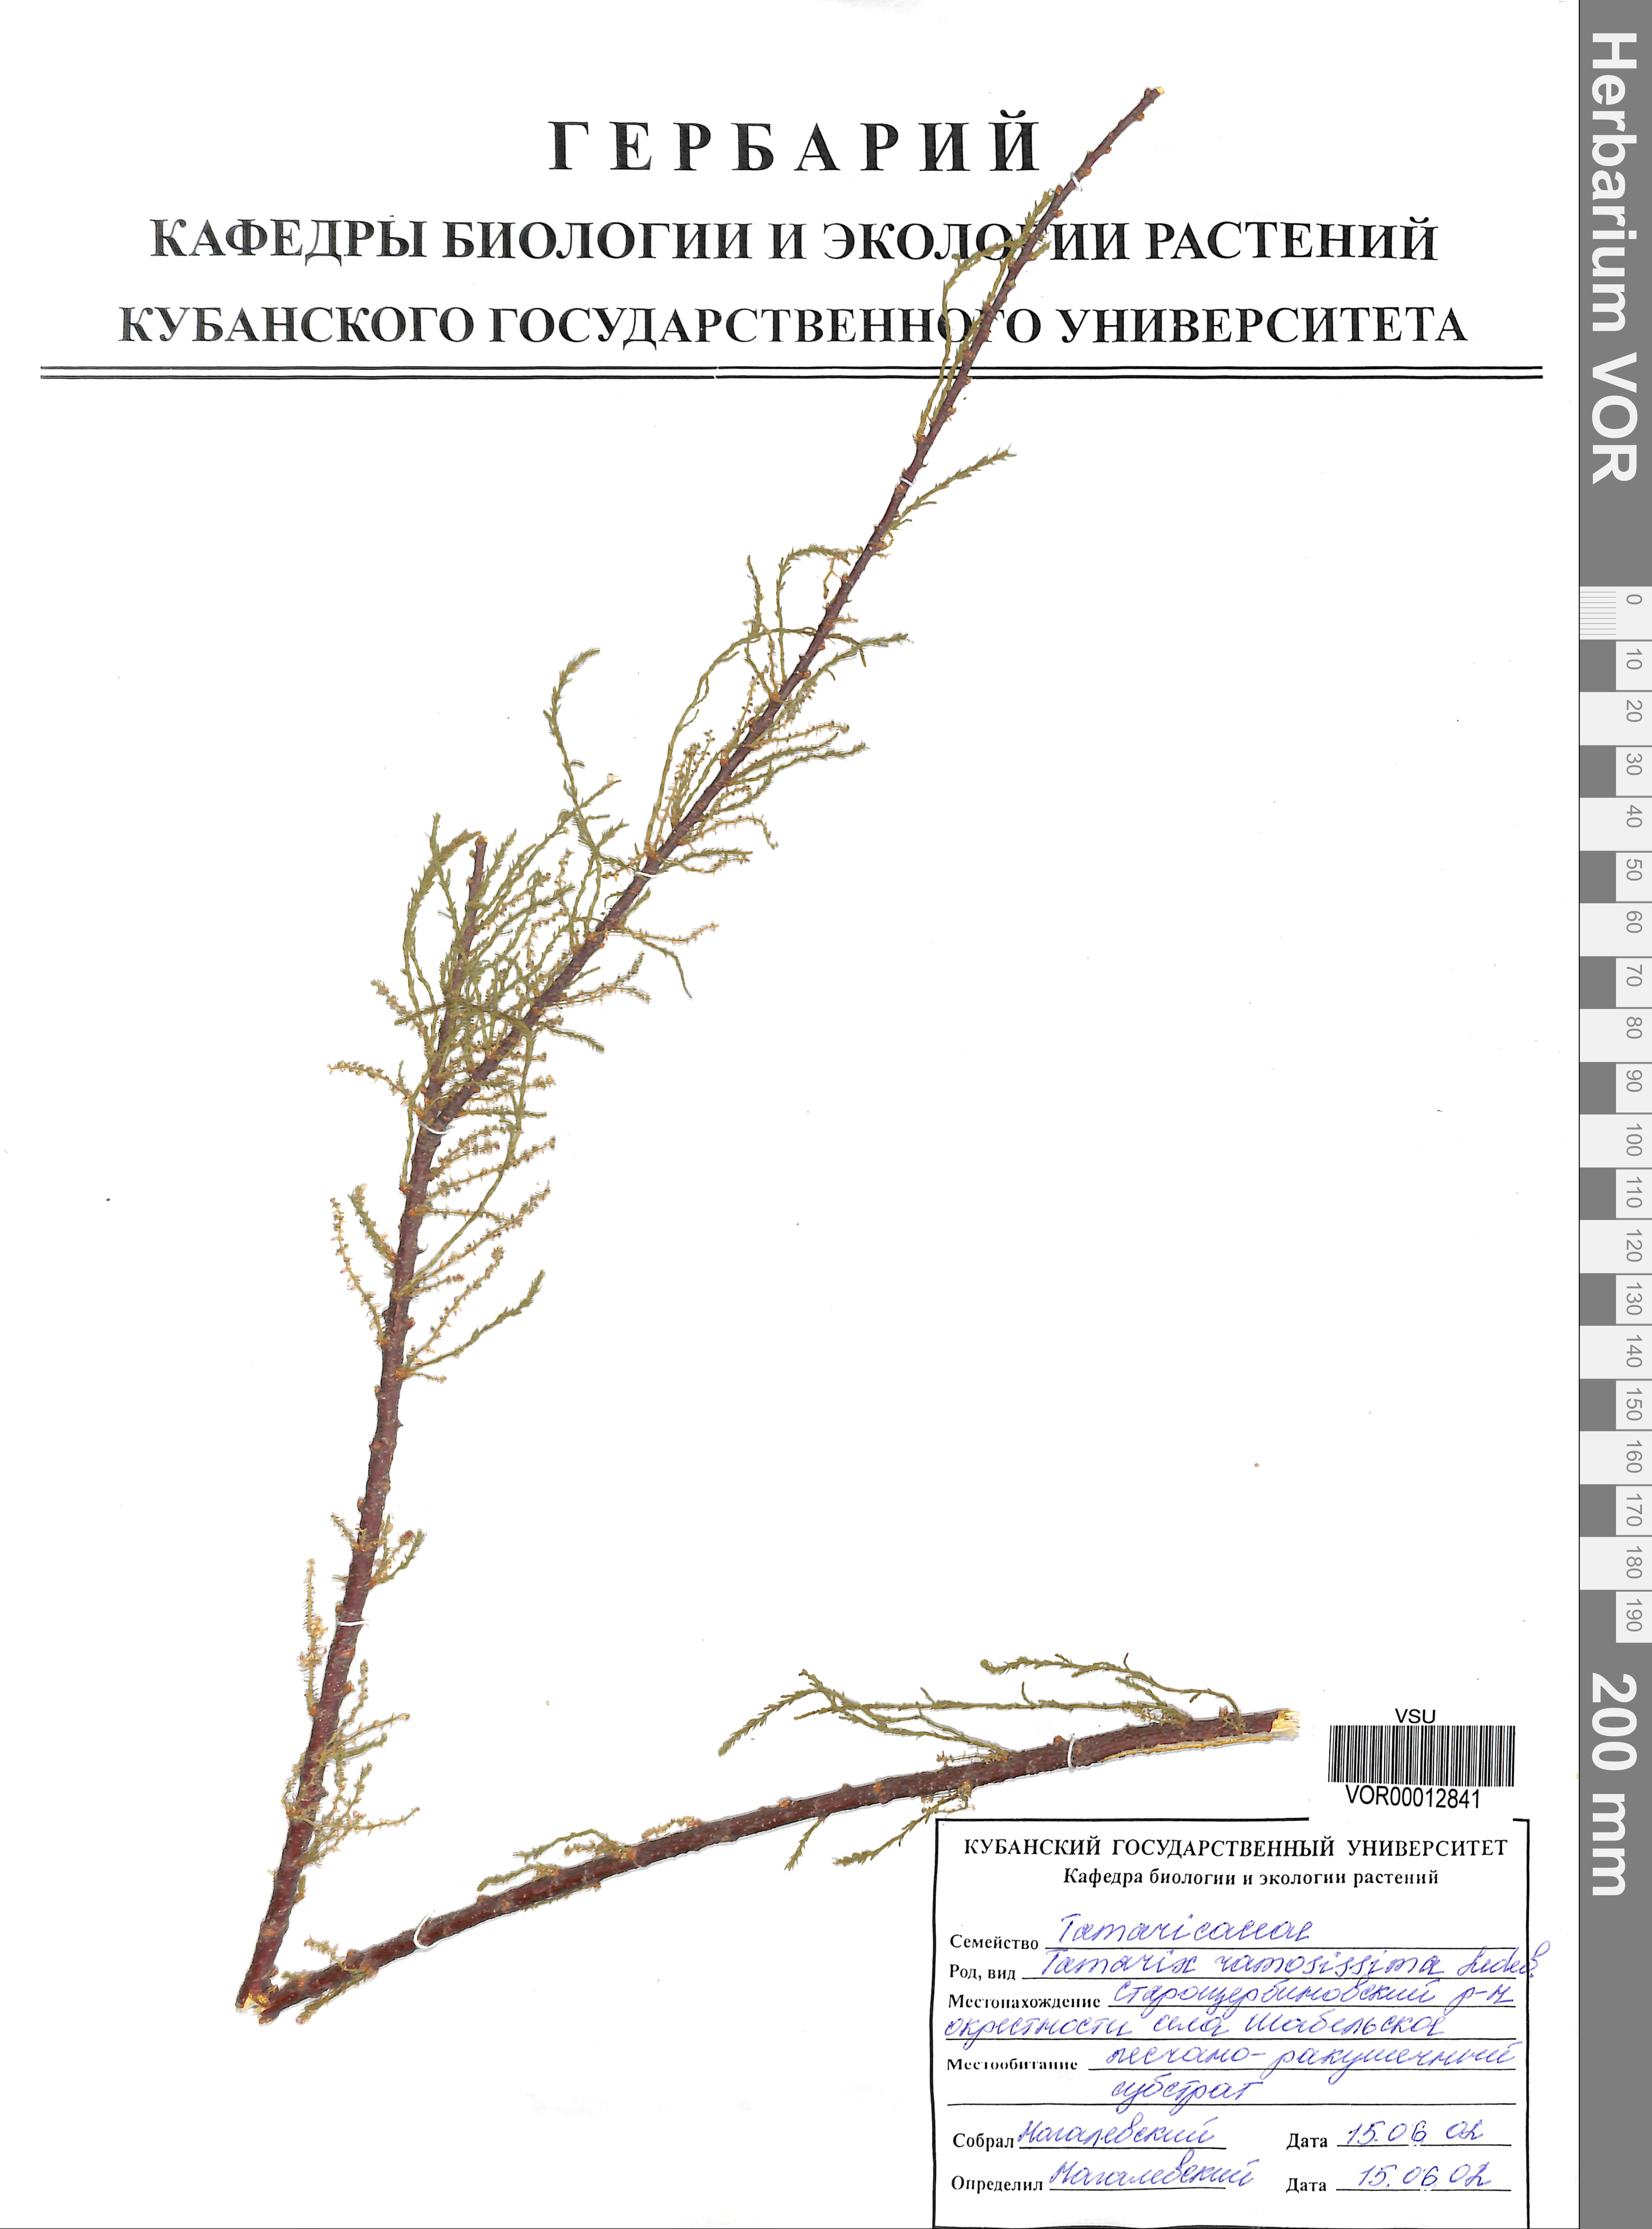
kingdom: Plantae
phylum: Tracheophyta
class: Magnoliopsida
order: Caryophyllales
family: Tamaricaceae
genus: Tamarix
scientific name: Tamarix ramosissima
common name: Pink tamarisk
